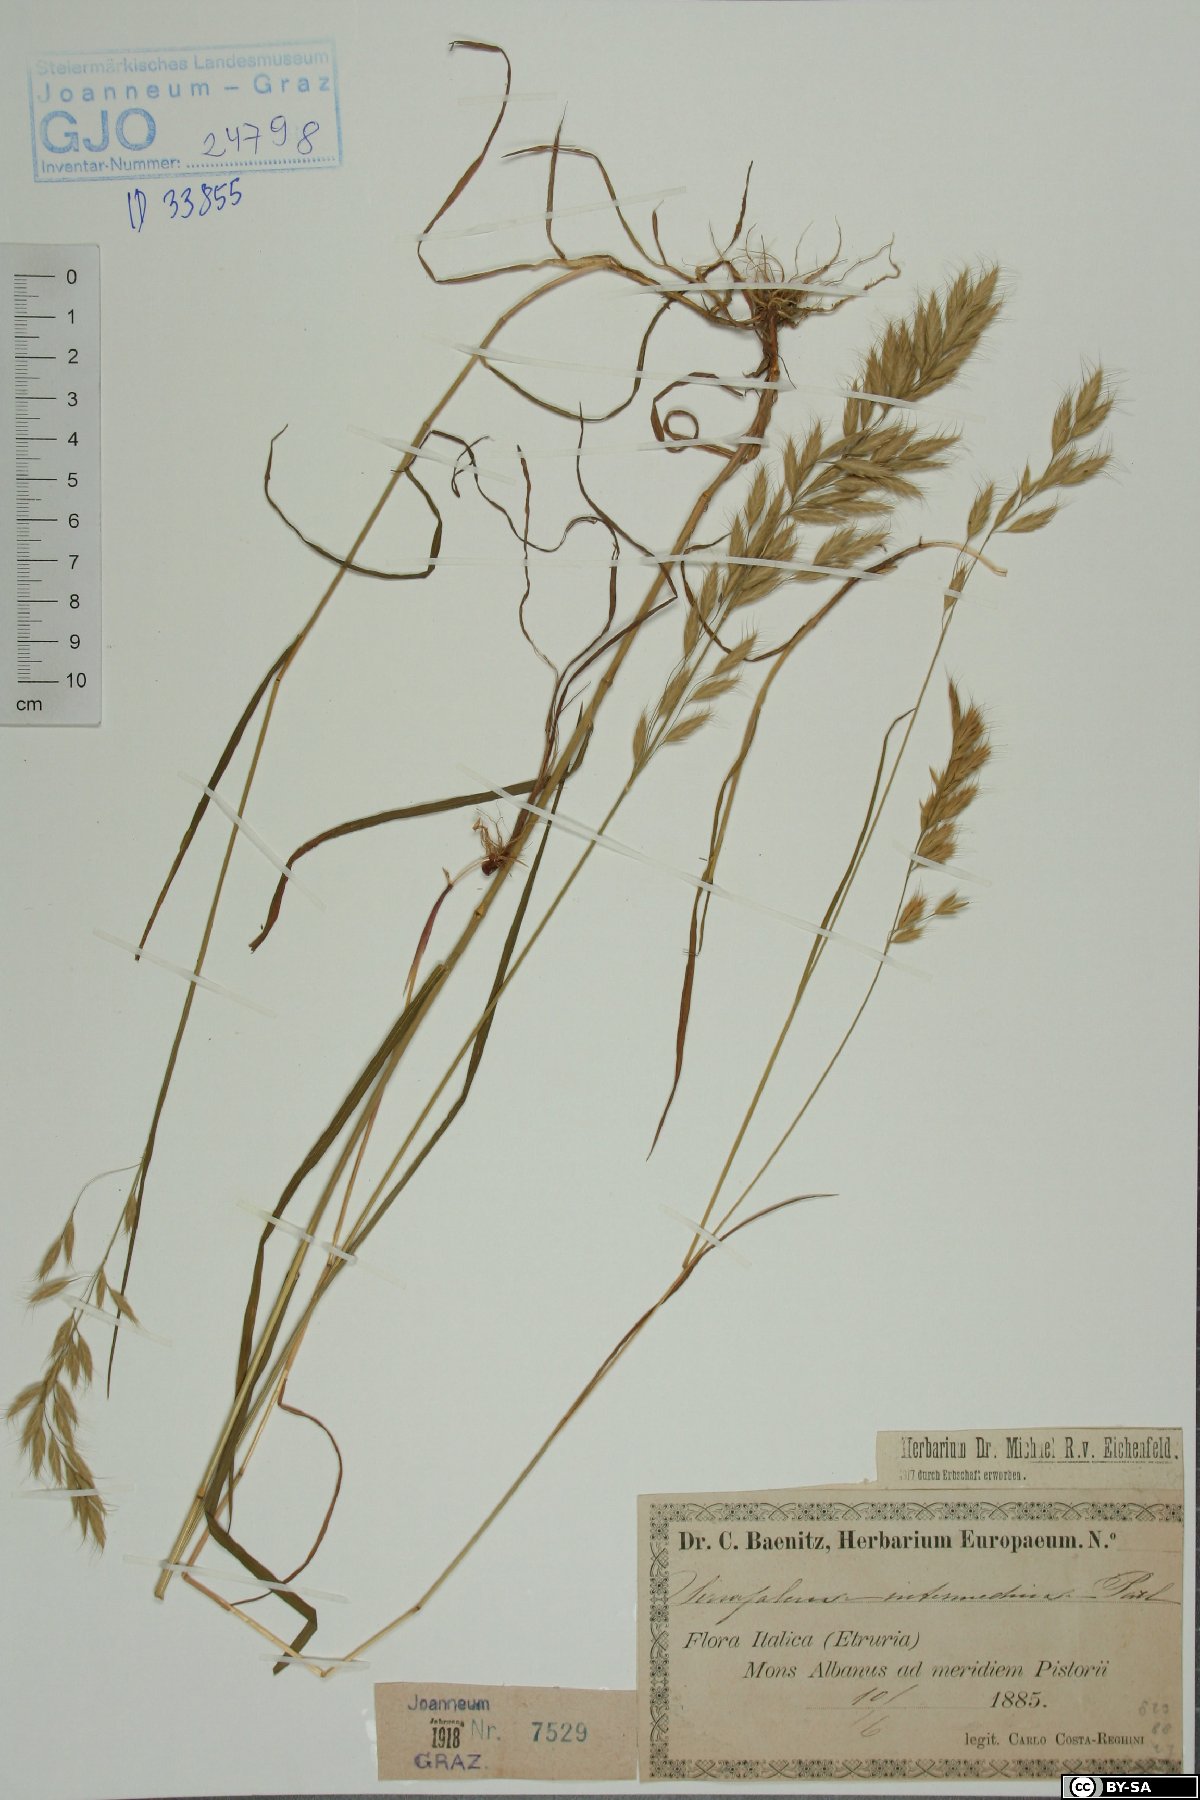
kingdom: Plantae
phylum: Tracheophyta
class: Liliopsida
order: Poales
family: Poaceae
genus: Bromus
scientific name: Bromus intermedius
